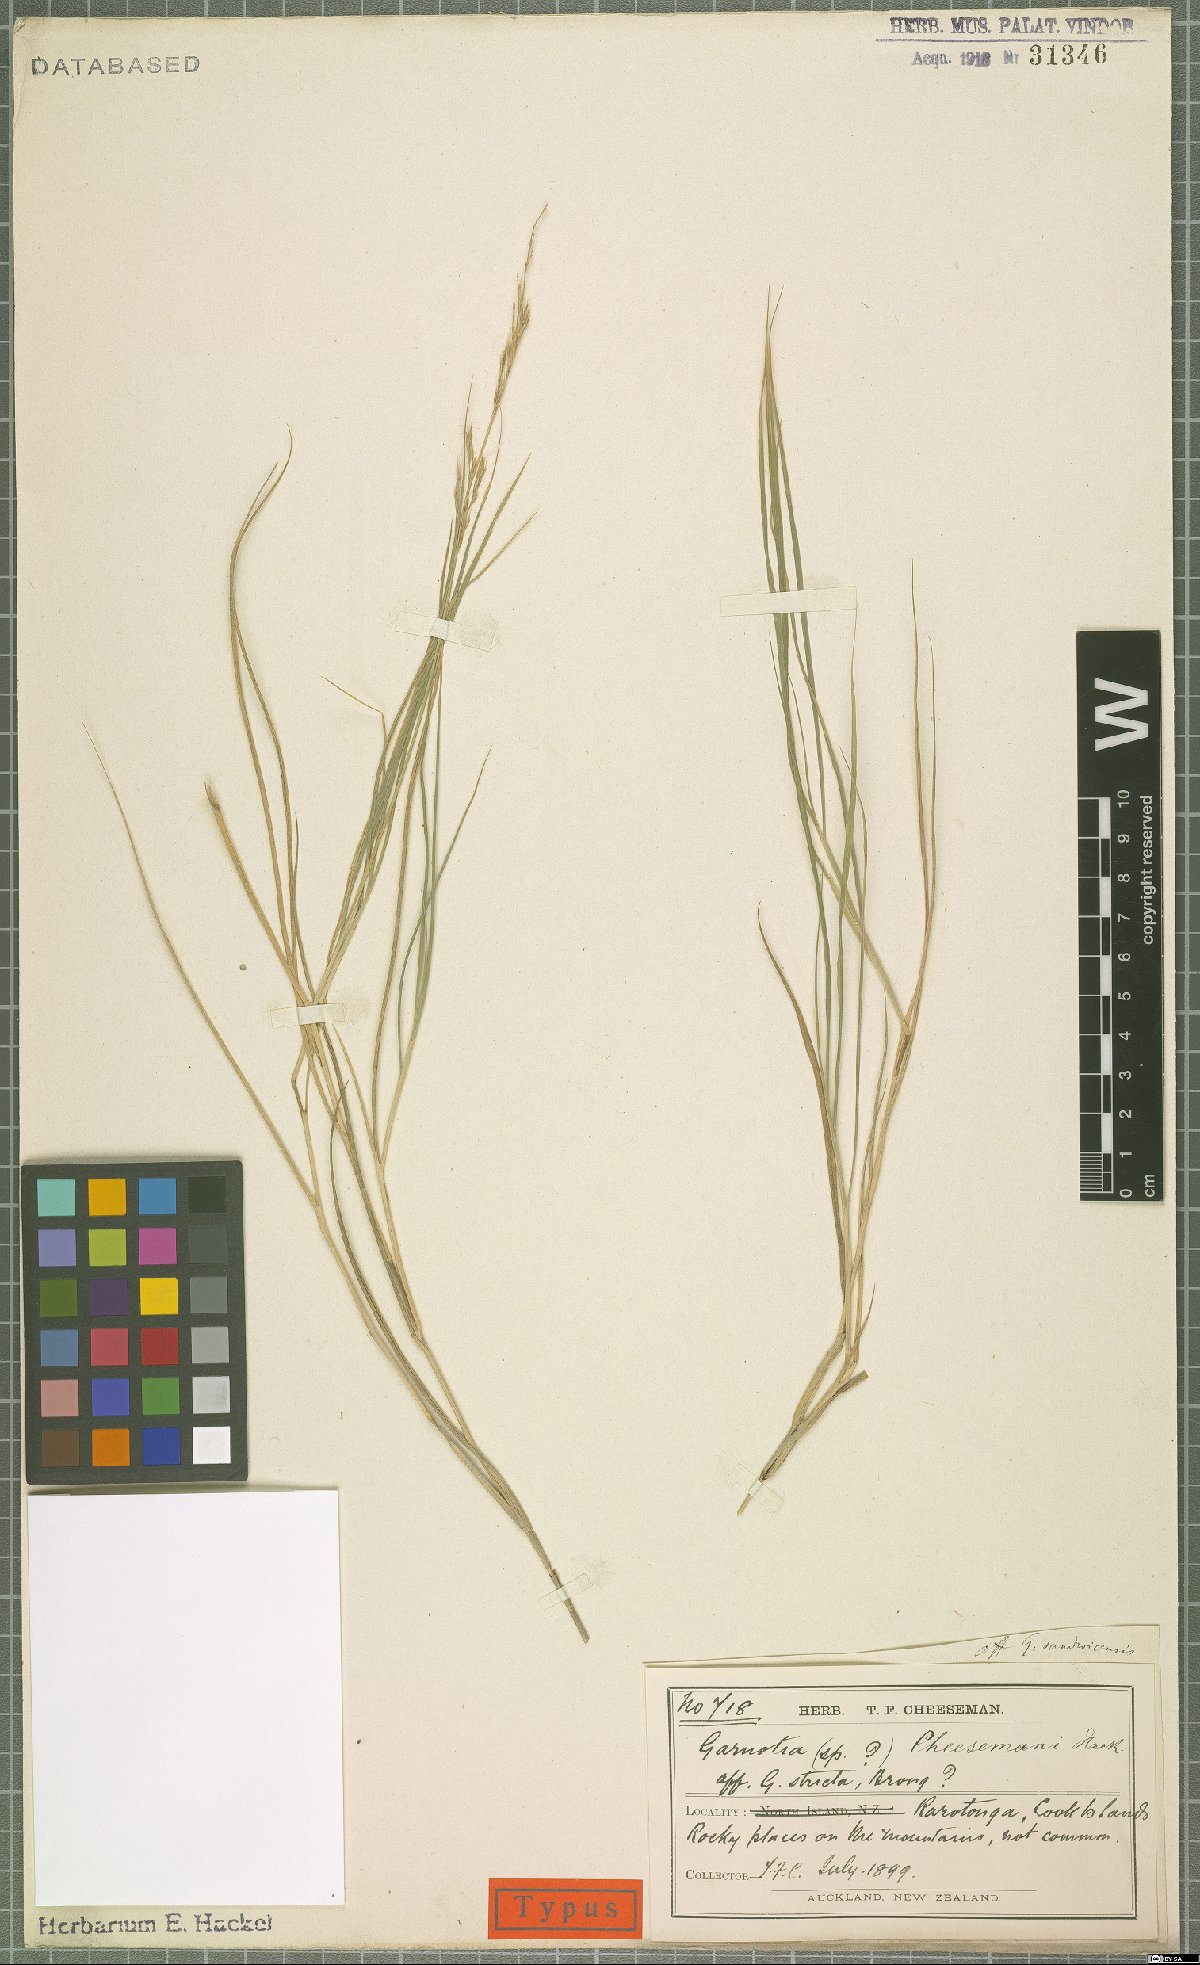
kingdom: Plantae
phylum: Tracheophyta
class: Liliopsida
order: Poales
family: Poaceae
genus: Garnotia
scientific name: Garnotia cheesemanii
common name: Rarotongan garnotia grass
